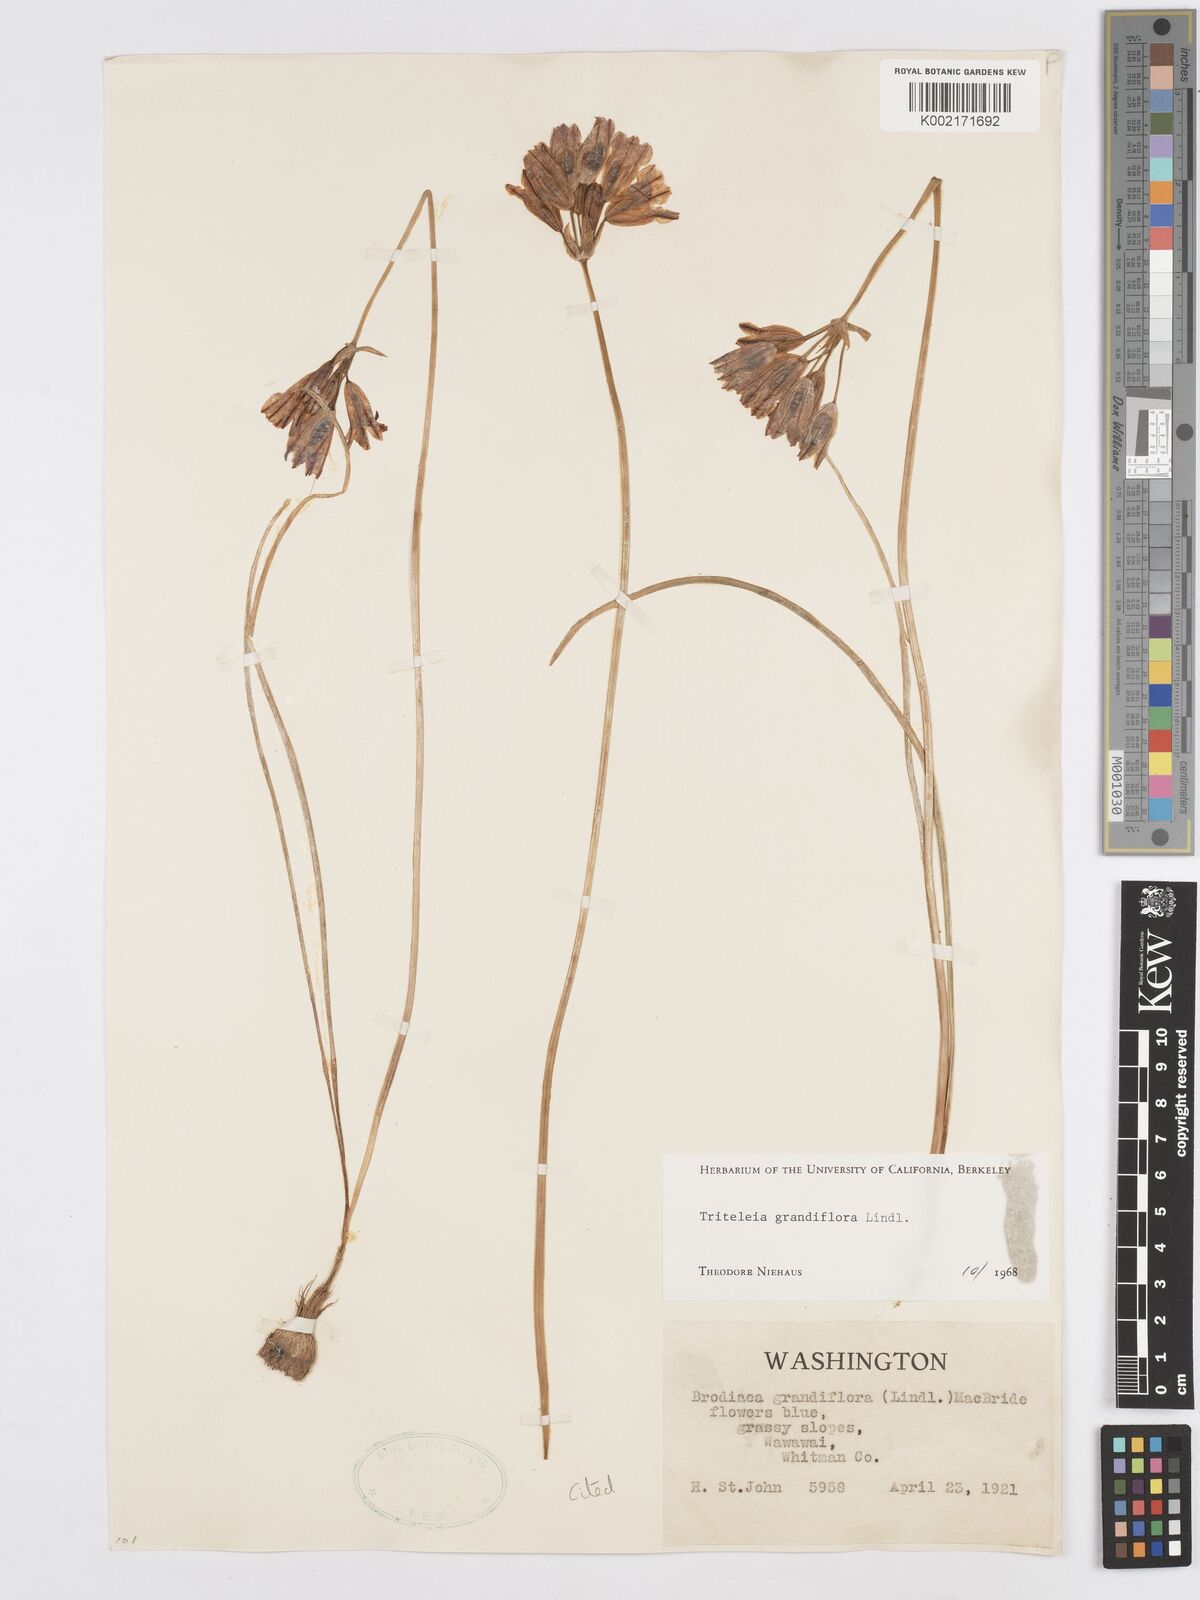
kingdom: Plantae
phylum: Tracheophyta
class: Liliopsida
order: Asparagales
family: Asparagaceae
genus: Triteleia
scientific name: Triteleia grandiflora
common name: Wild hyacinth
